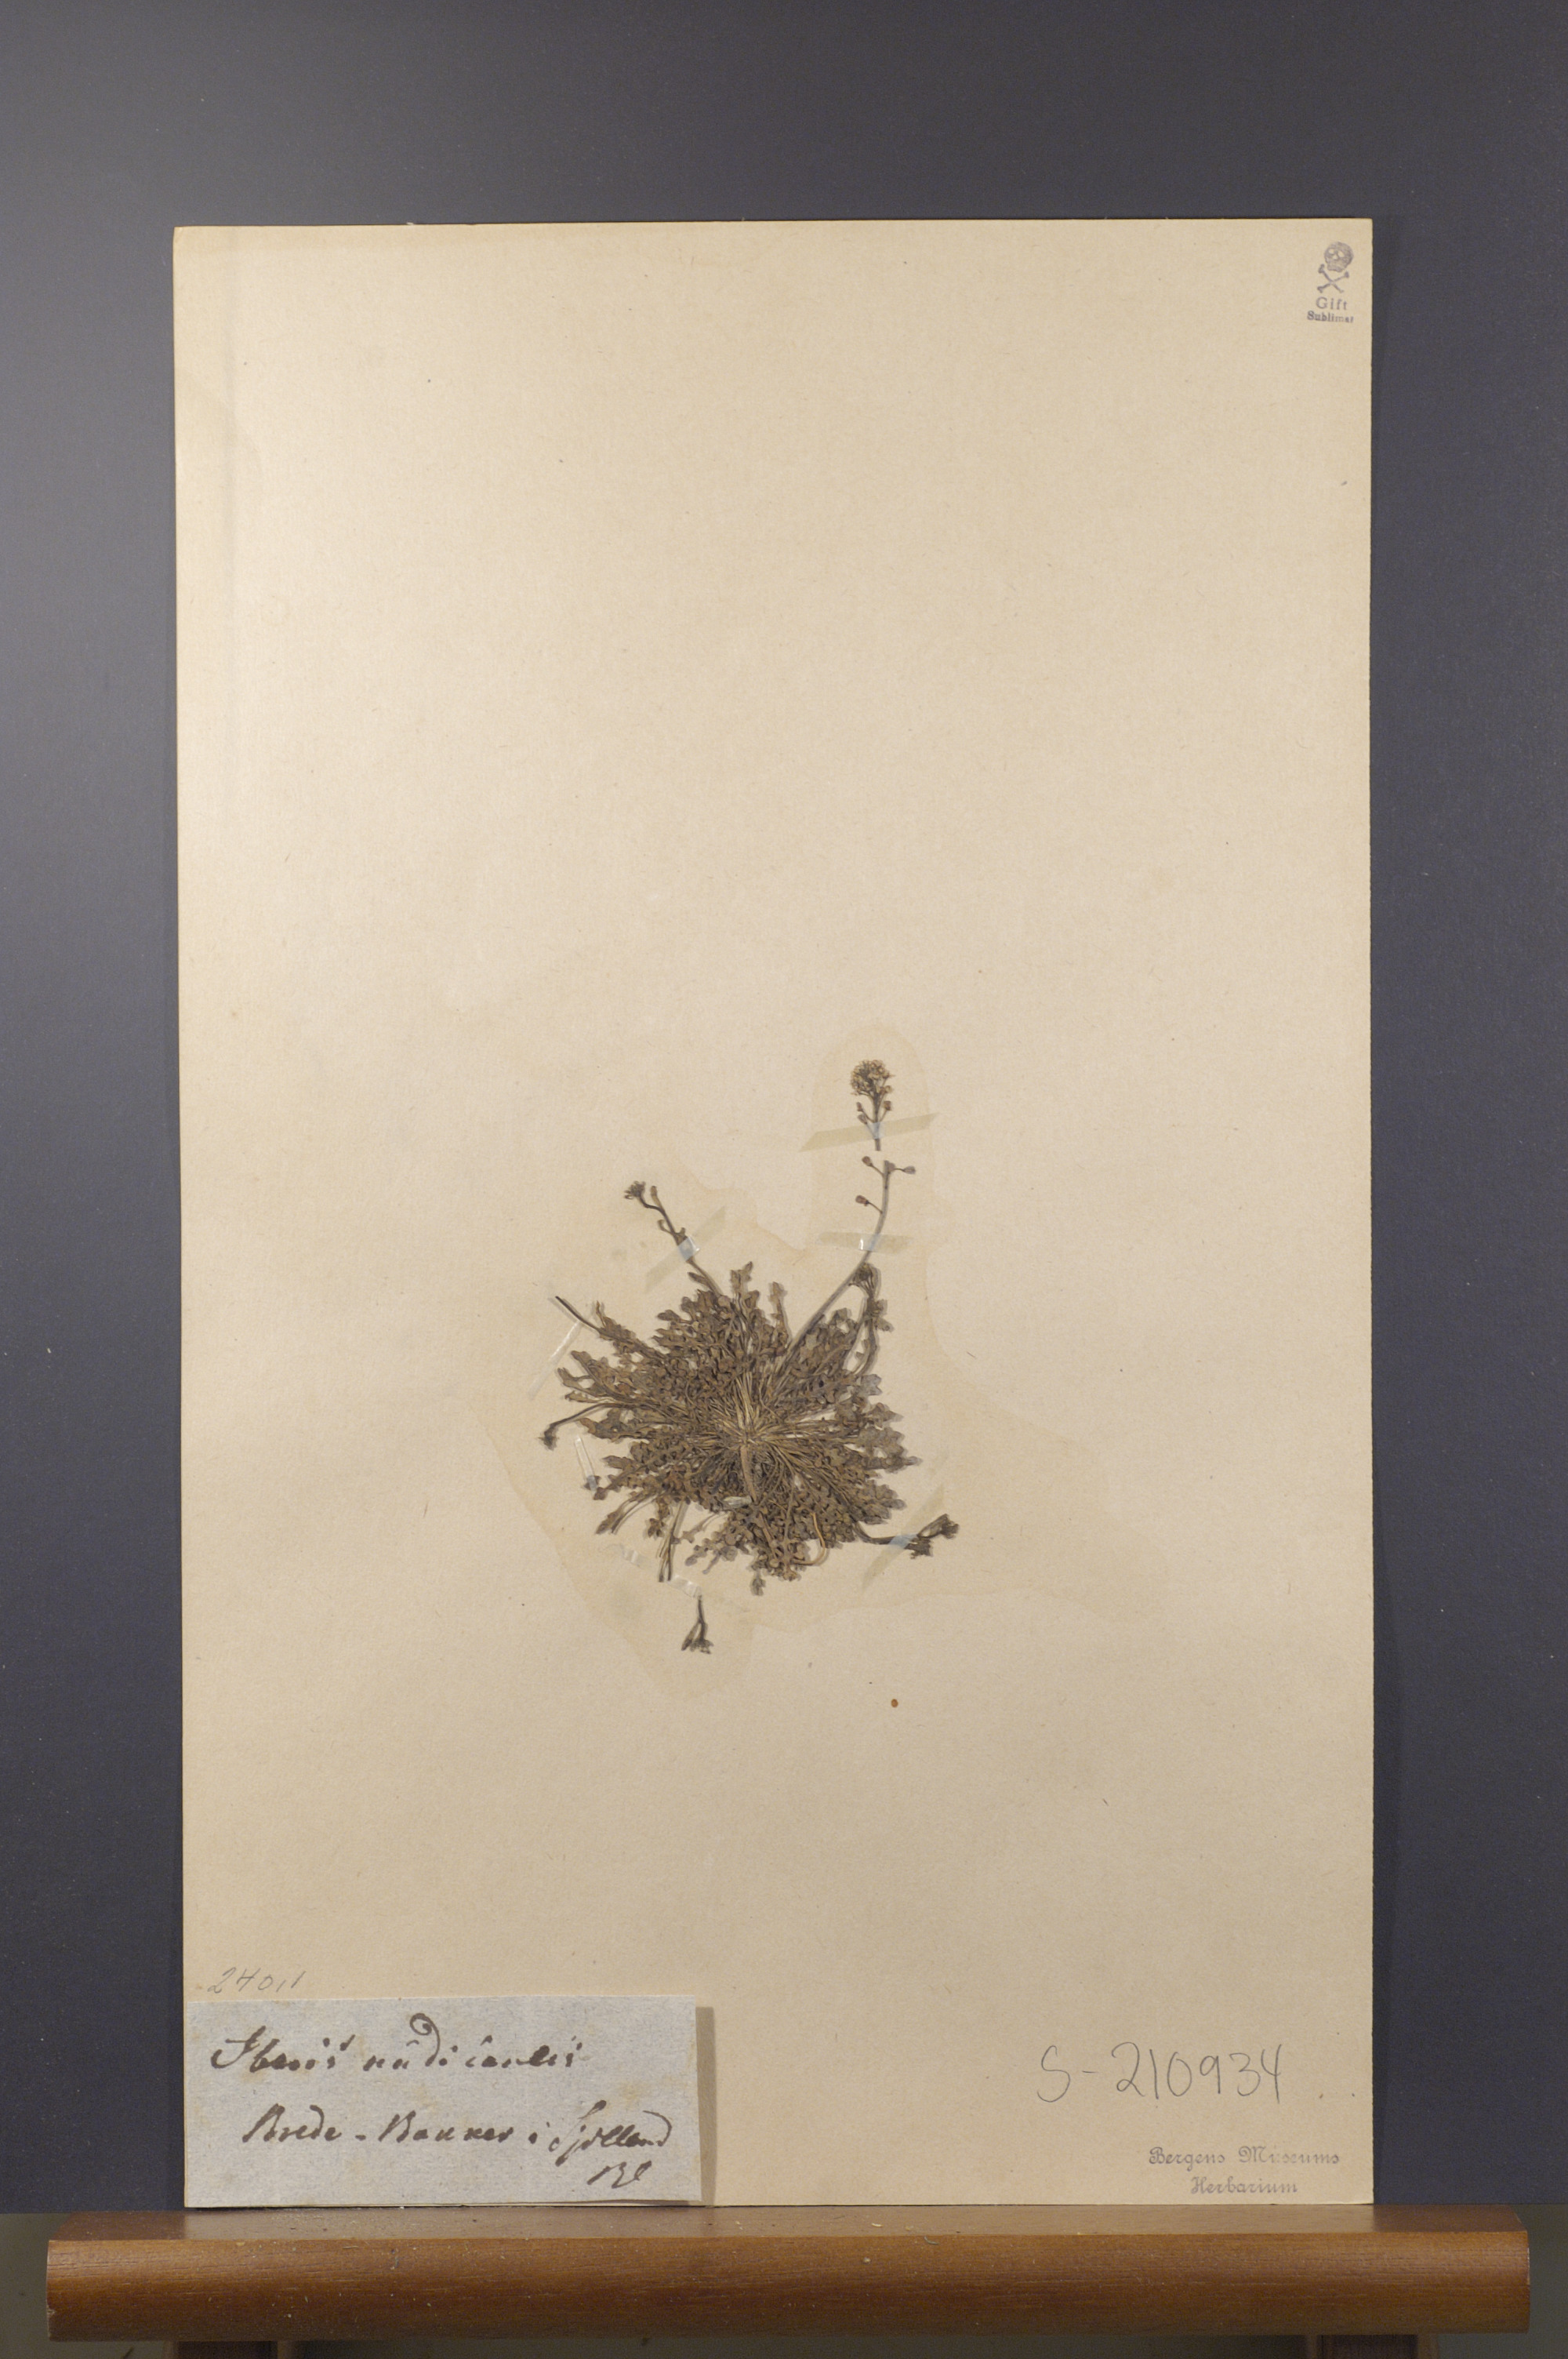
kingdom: Plantae
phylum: Tracheophyta
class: Magnoliopsida
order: Brassicales
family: Brassicaceae
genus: Teesdalia
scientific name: Teesdalia nudicaulis
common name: Shepherd's cress
